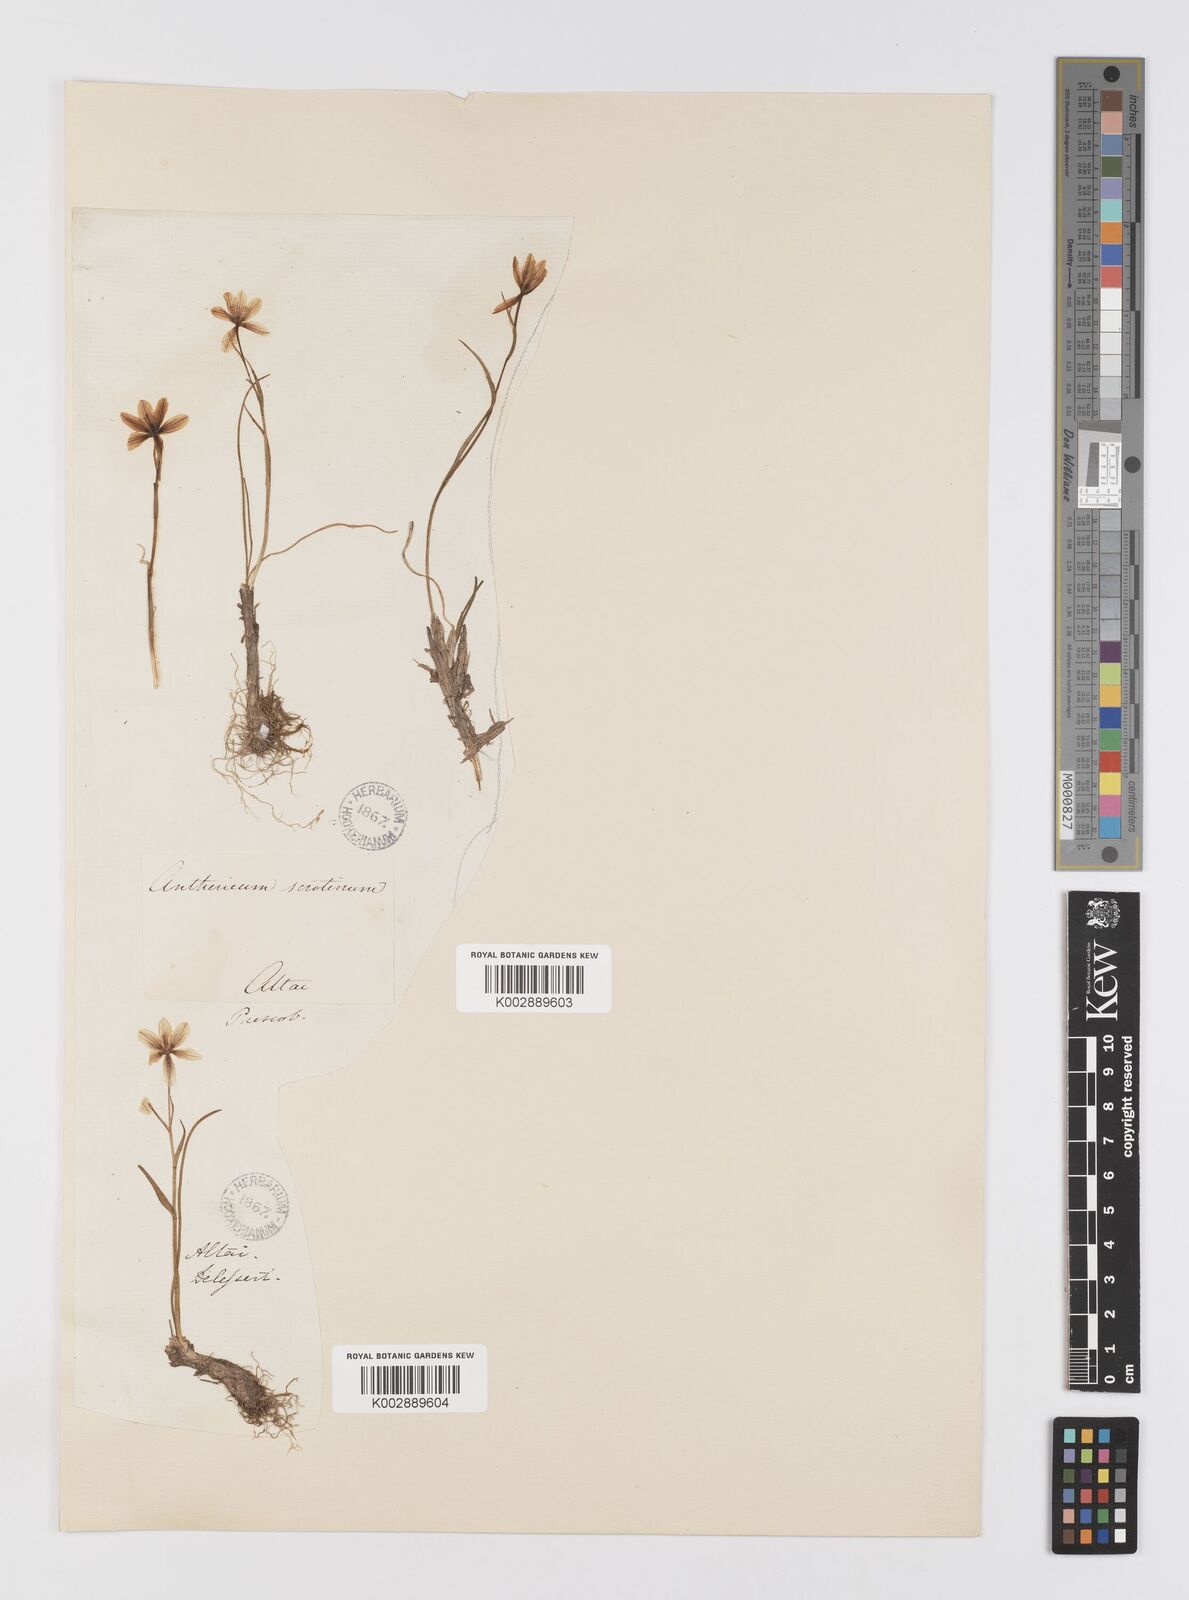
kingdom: Plantae
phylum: Tracheophyta
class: Liliopsida
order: Liliales
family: Liliaceae
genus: Gagea
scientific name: Gagea serotina
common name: Snowdon lily
